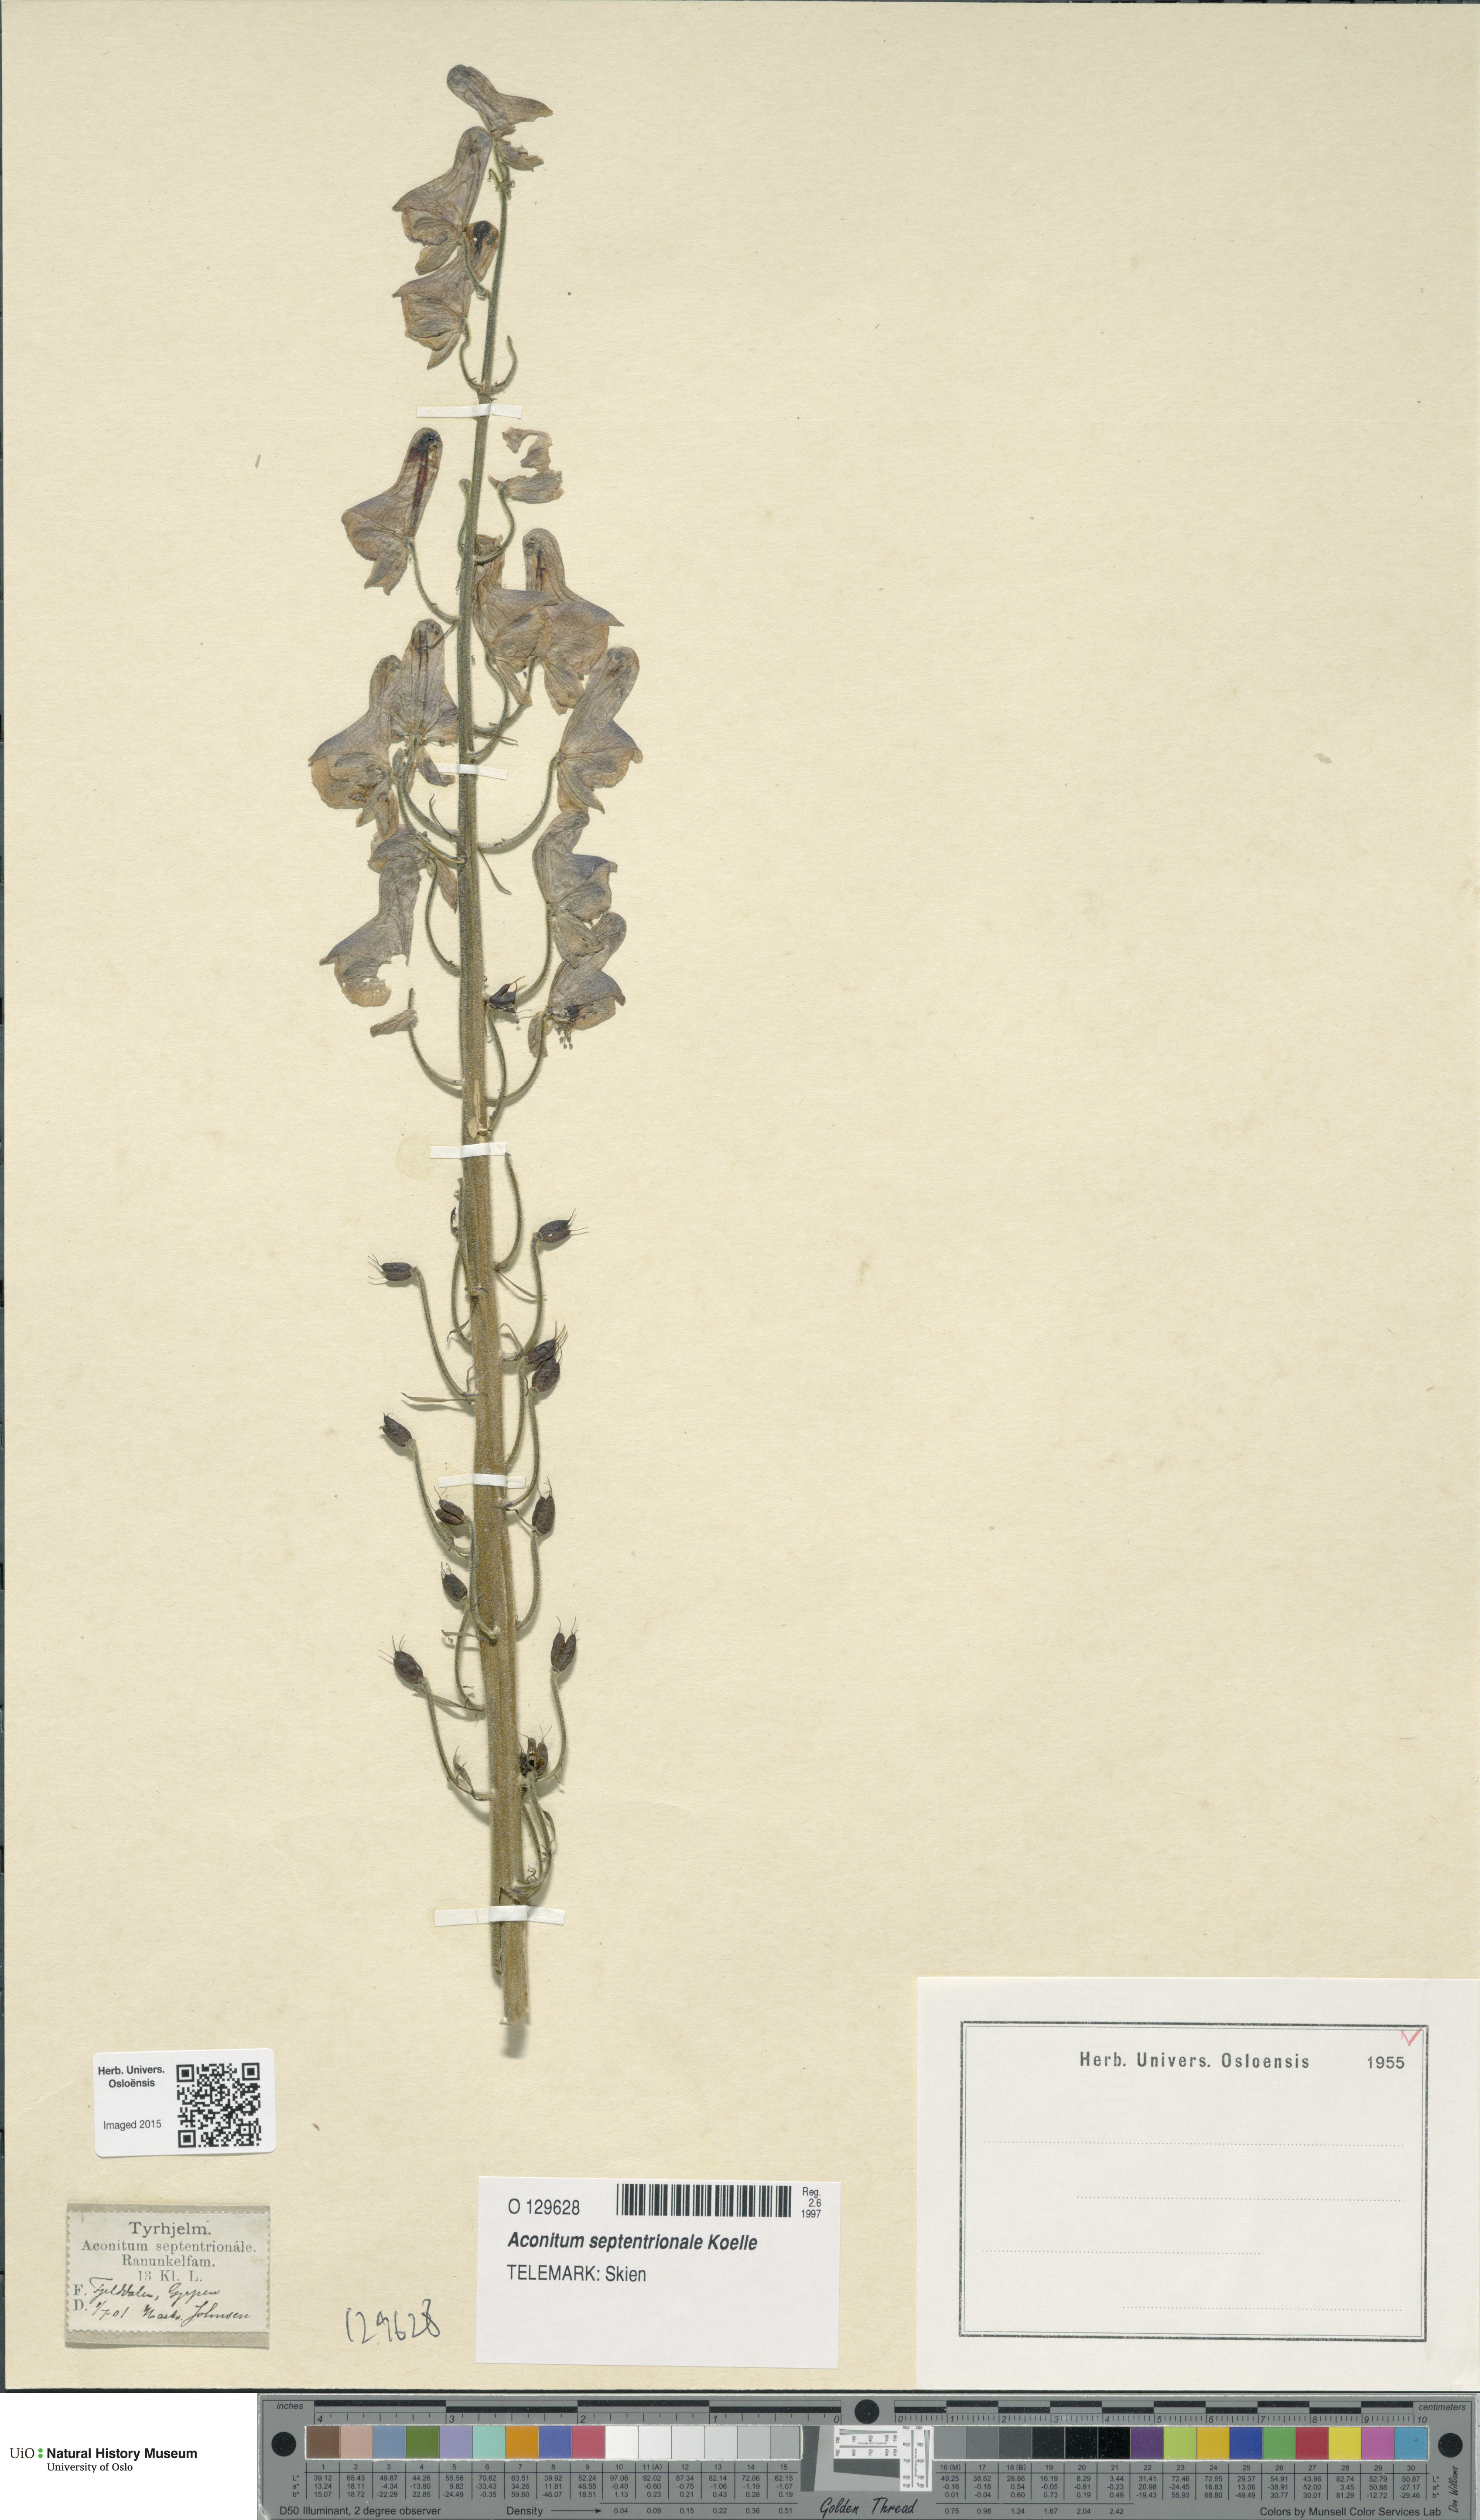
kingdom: Plantae
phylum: Tracheophyta
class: Magnoliopsida
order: Ranunculales
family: Ranunculaceae
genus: Aconitum
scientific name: Aconitum septentrionale
